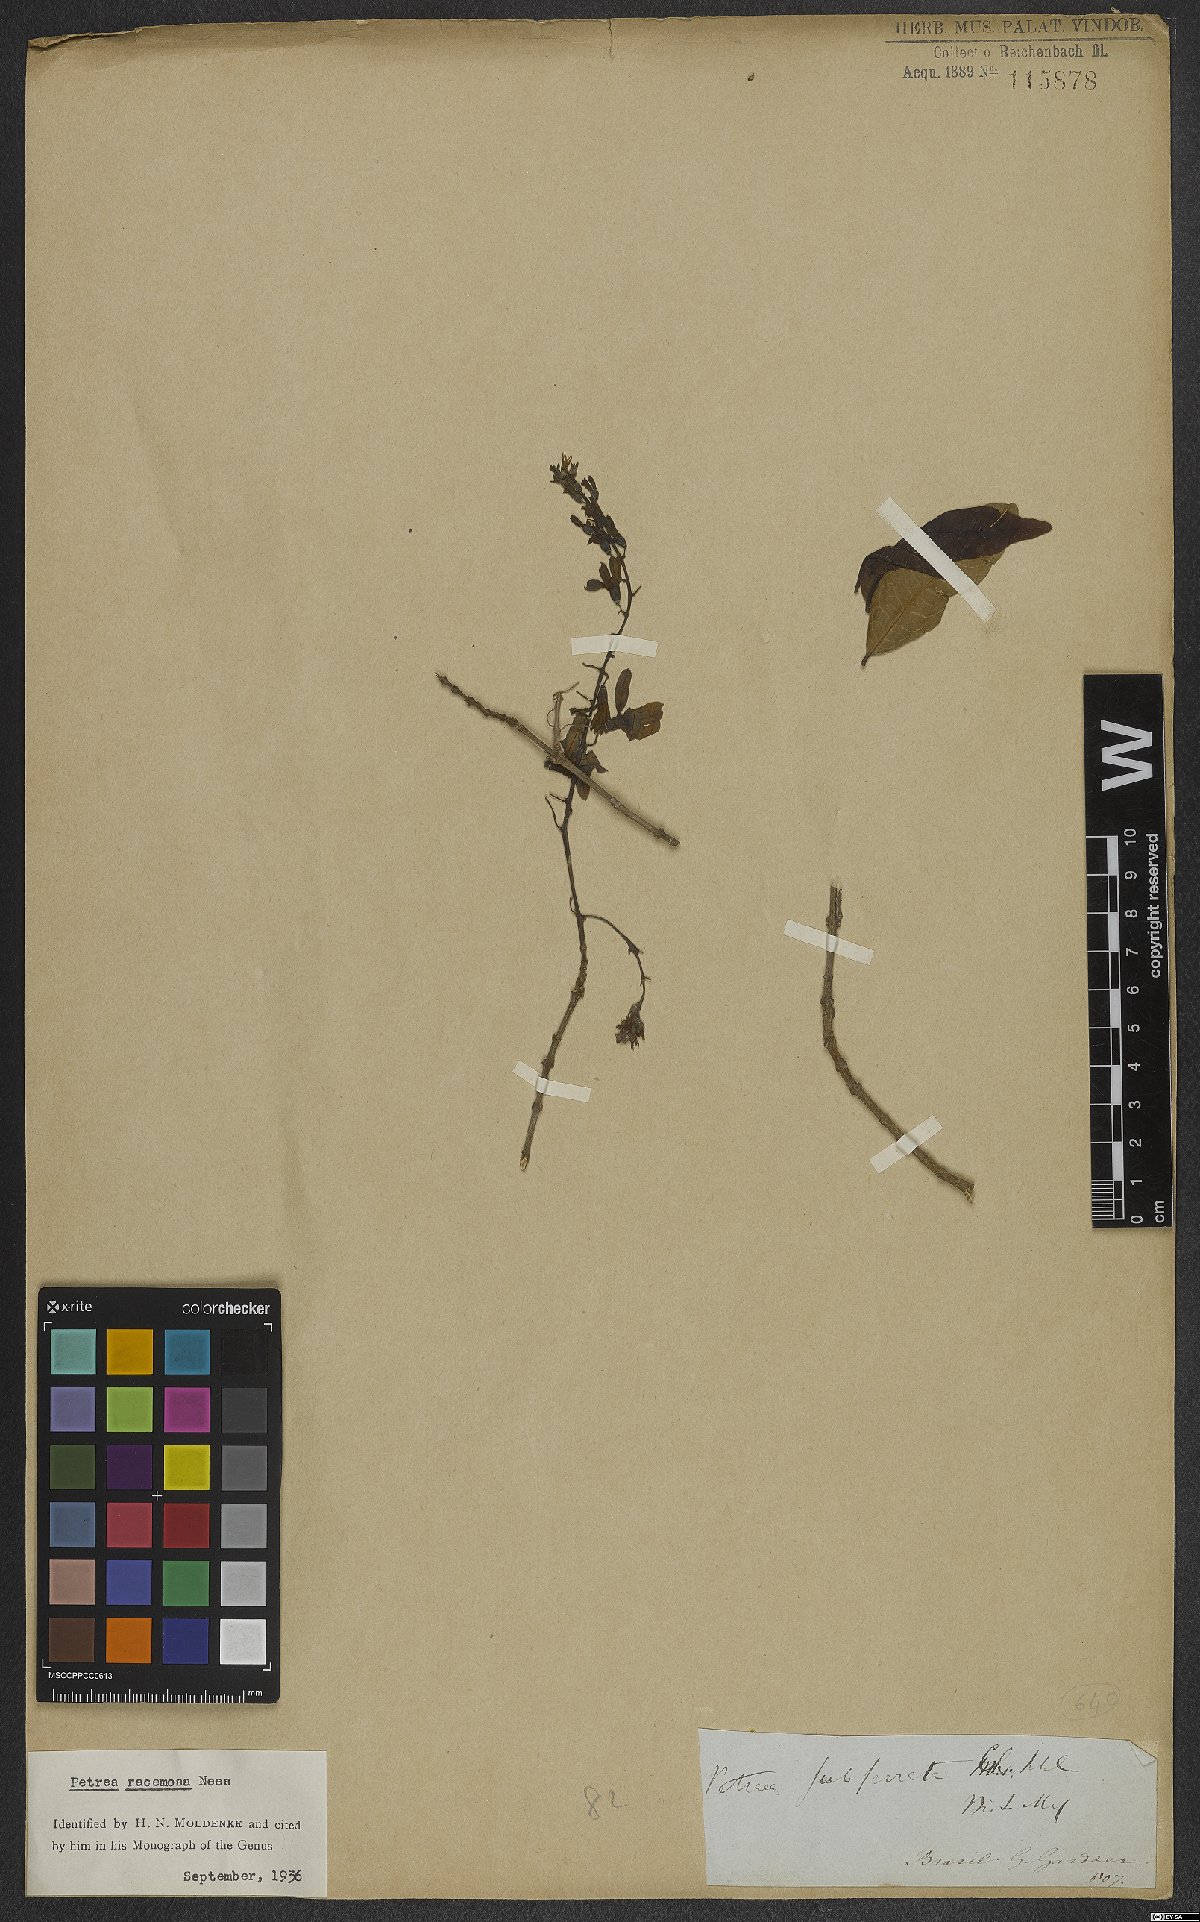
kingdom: Plantae
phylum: Tracheophyta
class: Magnoliopsida
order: Lamiales
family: Verbenaceae
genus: Petrea
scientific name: Petrea volubilis
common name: Queen's-wreath
